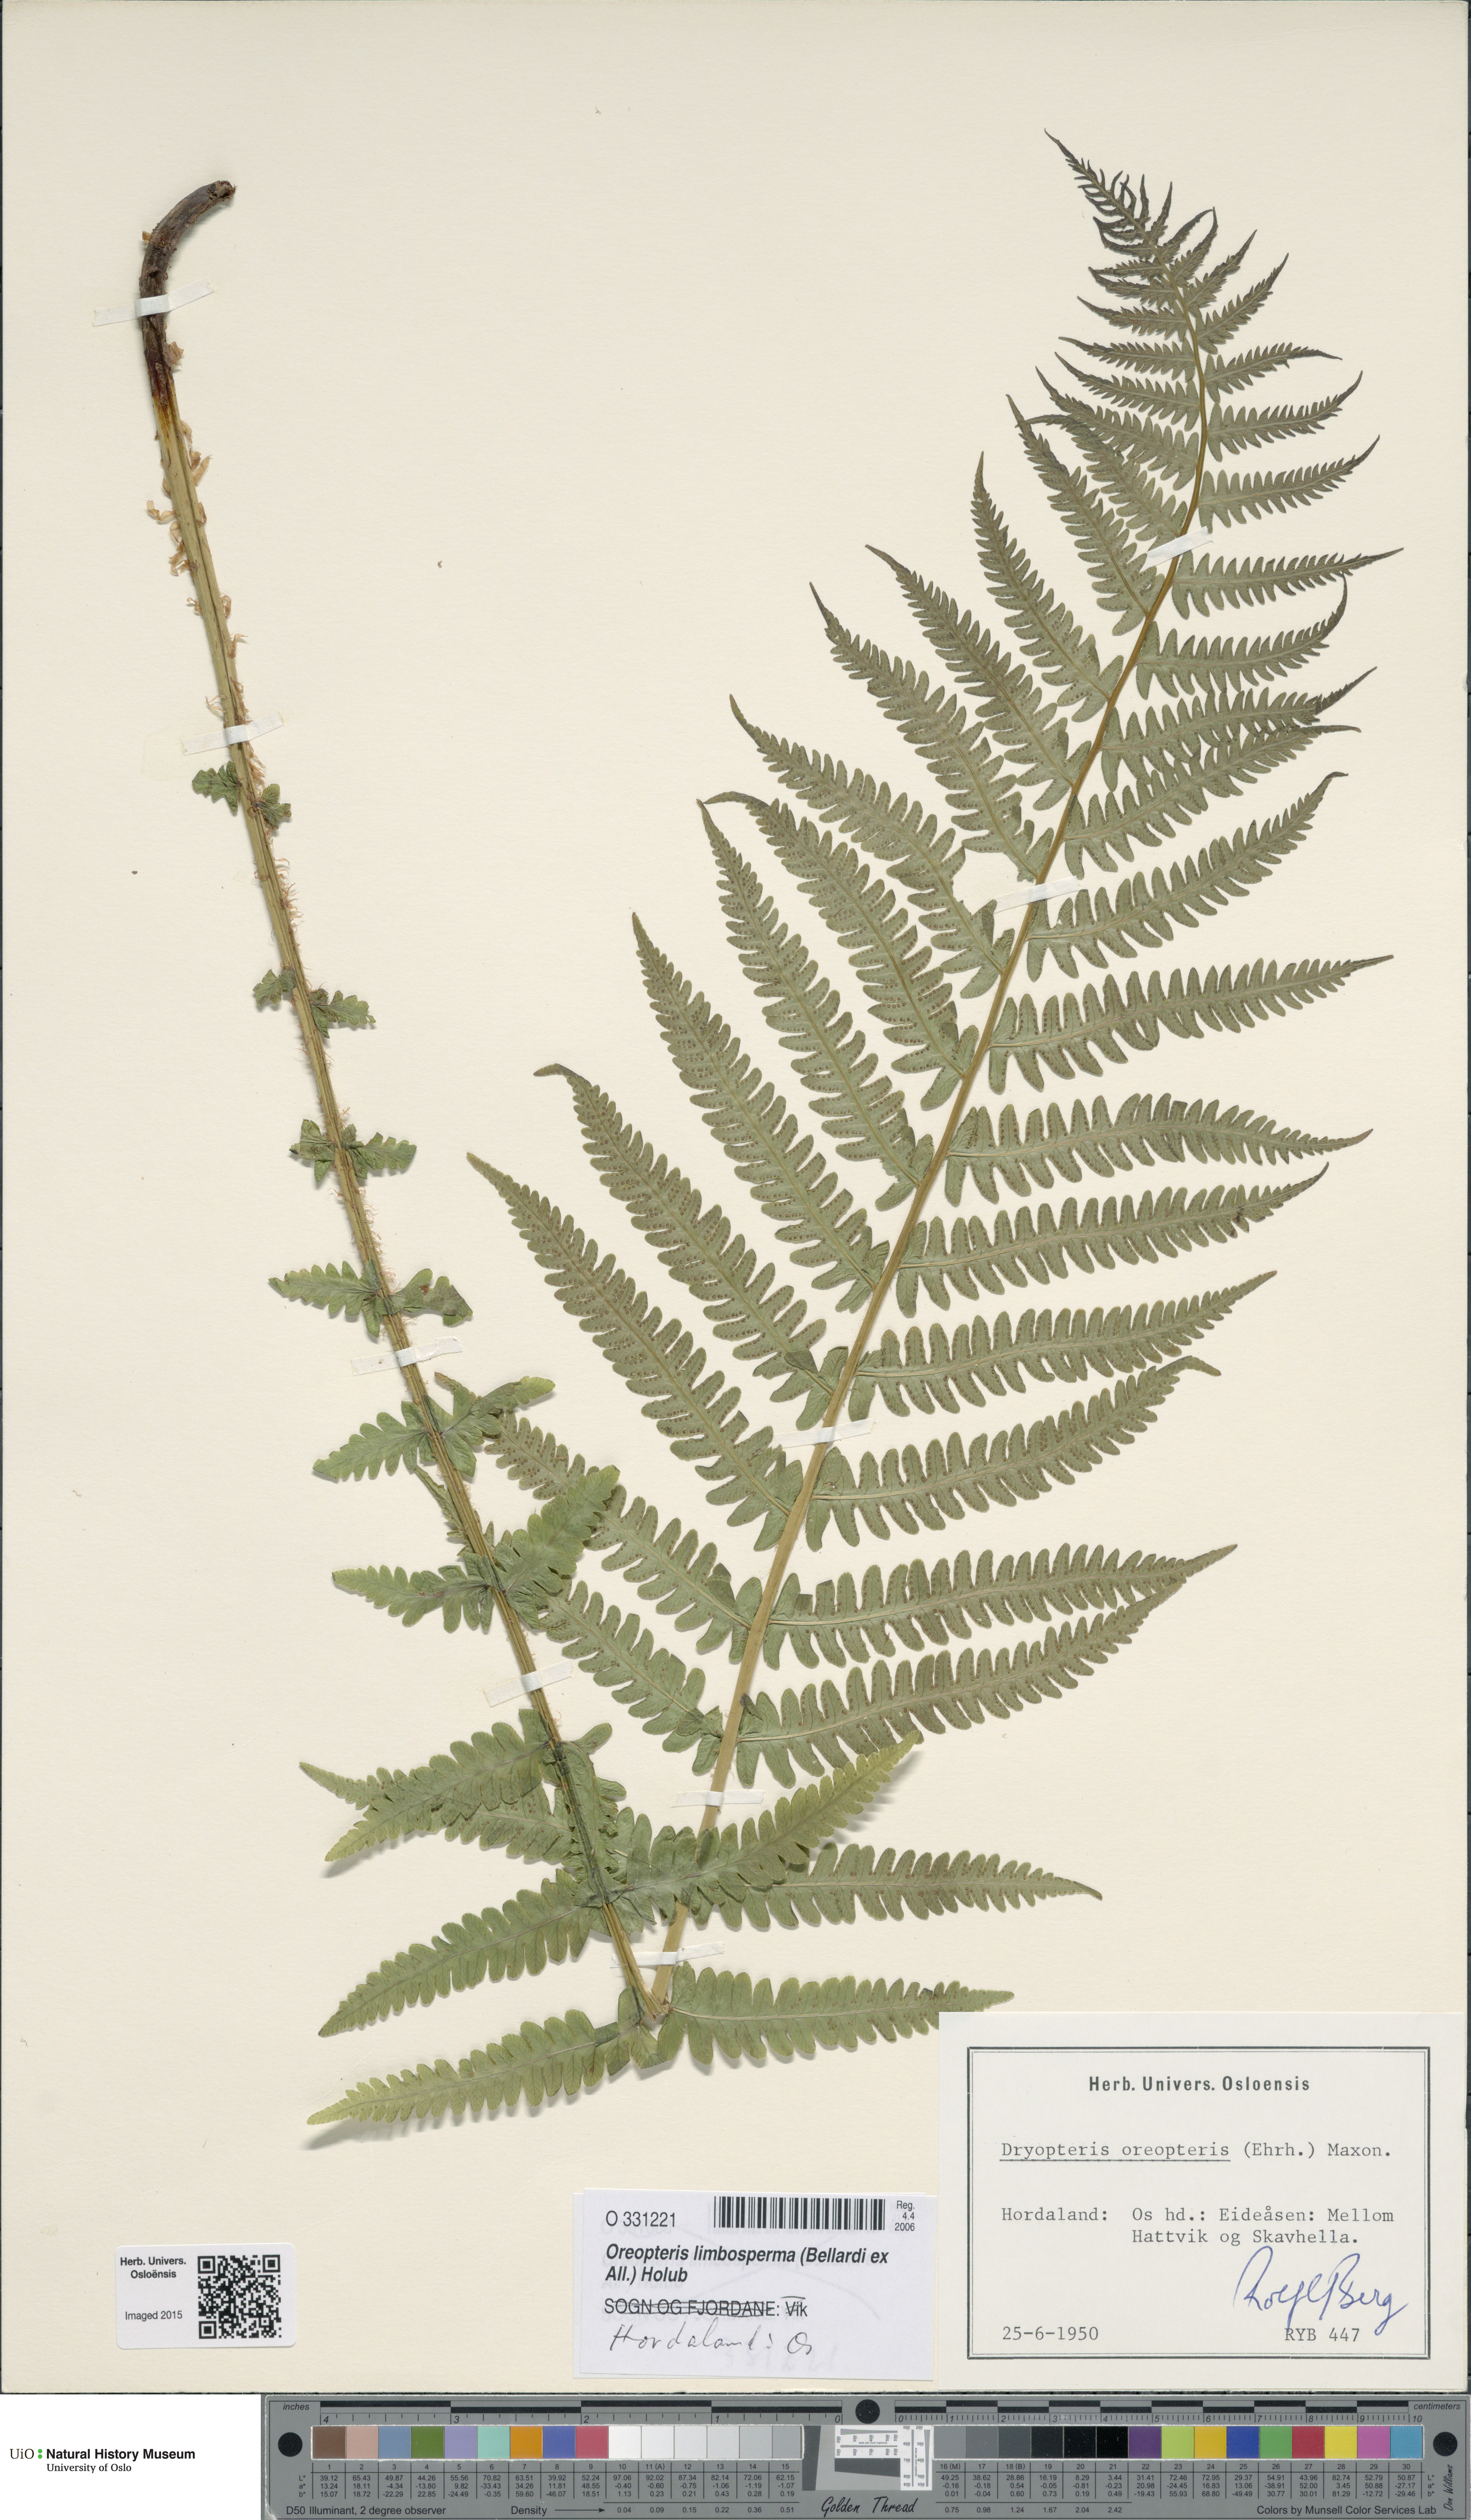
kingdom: Plantae
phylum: Tracheophyta
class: Polypodiopsida
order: Polypodiales
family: Thelypteridaceae
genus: Oreopteris
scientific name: Oreopteris limbosperma
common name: Lemon-scented fern
